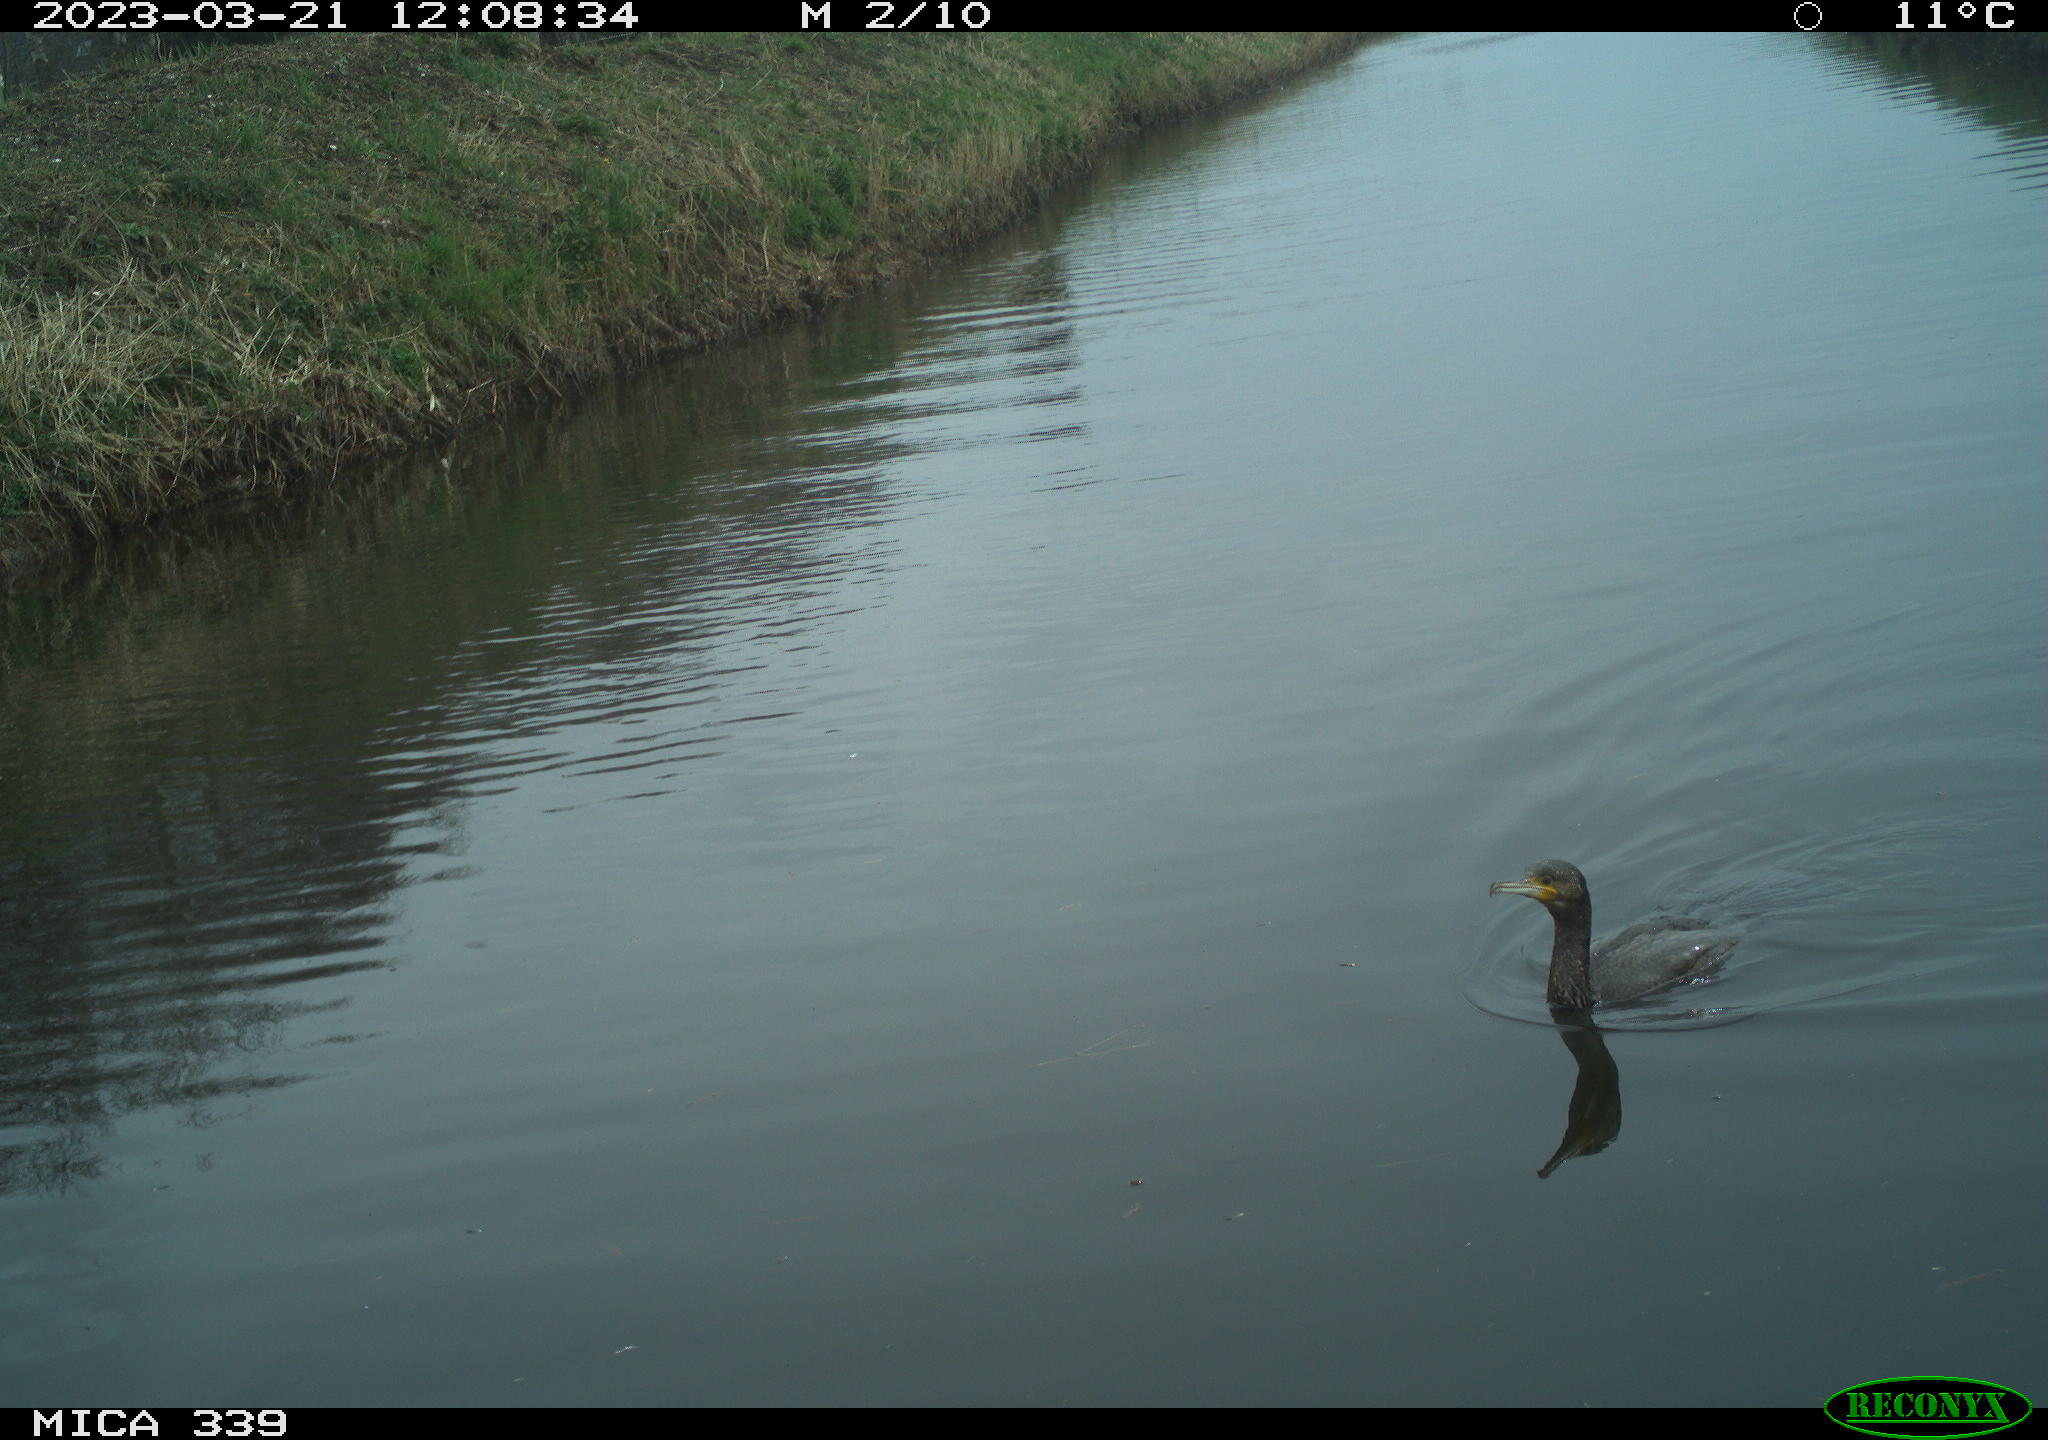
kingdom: Animalia
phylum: Chordata
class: Aves
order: Anseriformes
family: Anatidae
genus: Anas
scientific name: Anas
